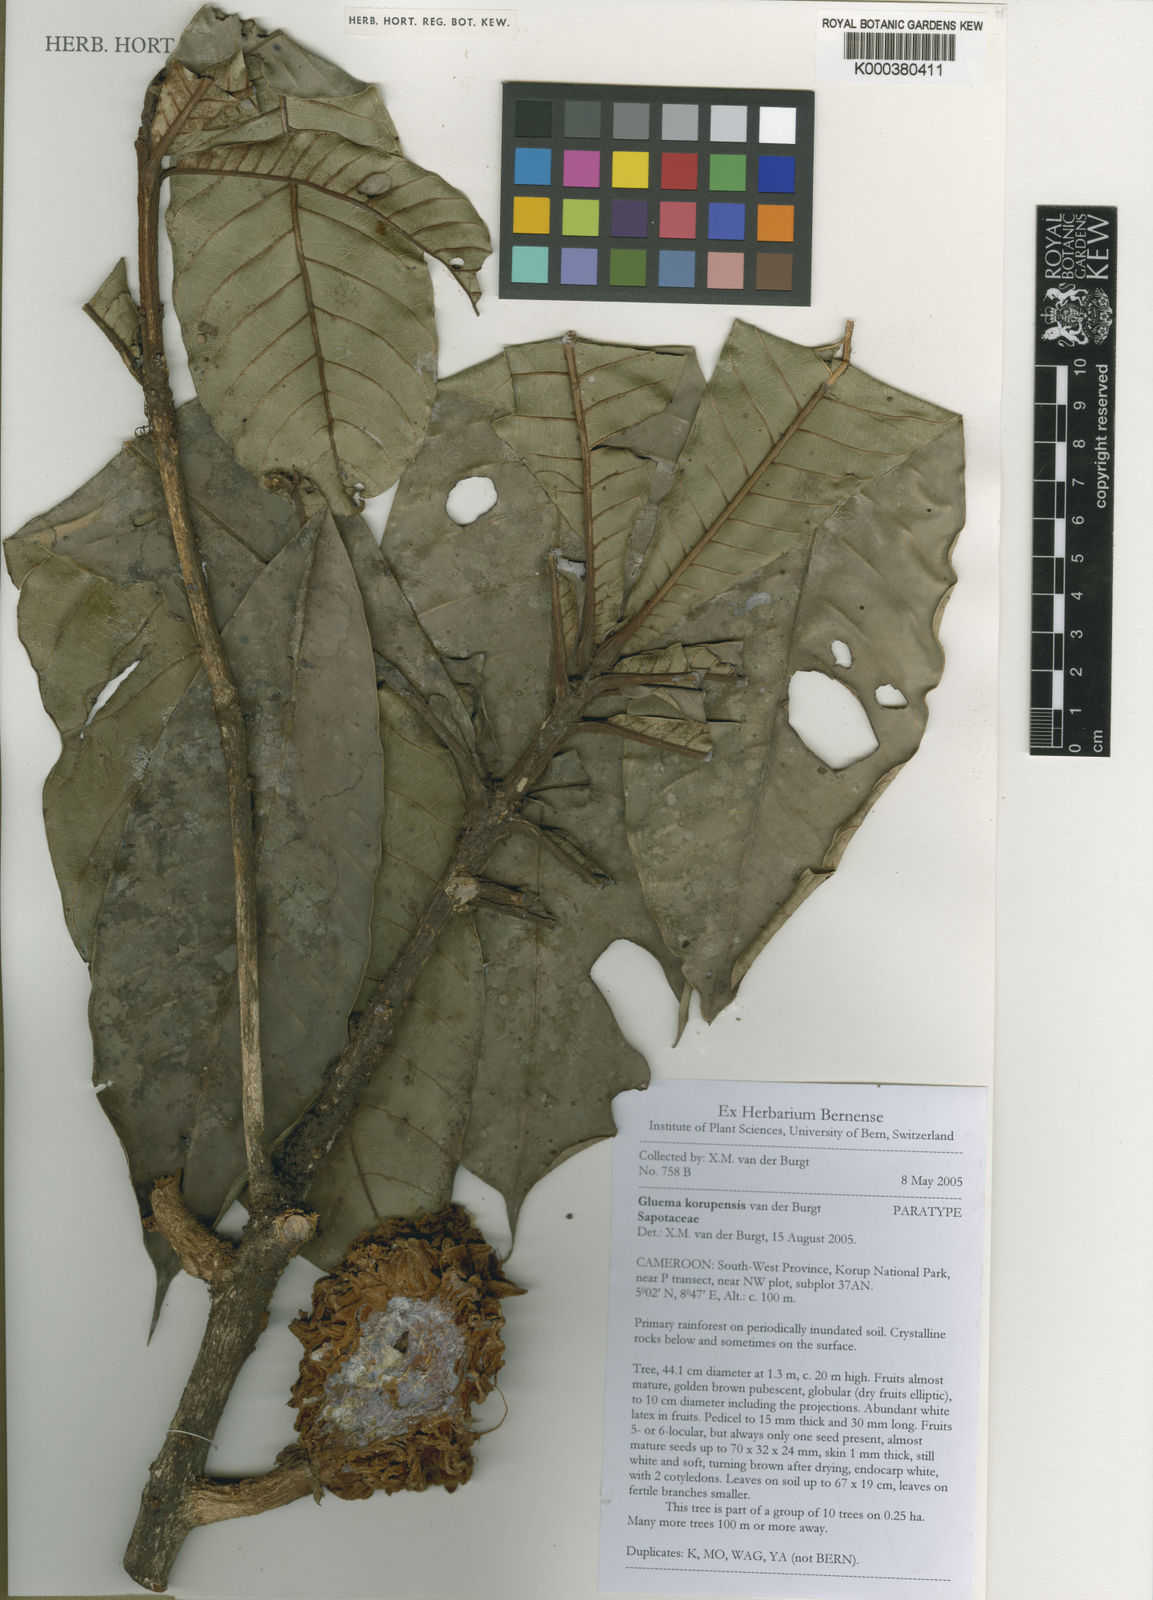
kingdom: Plantae
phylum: Tracheophyta
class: Magnoliopsida
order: Ericales
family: Sapotaceae
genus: Gluema
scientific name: Gluema korupensis
